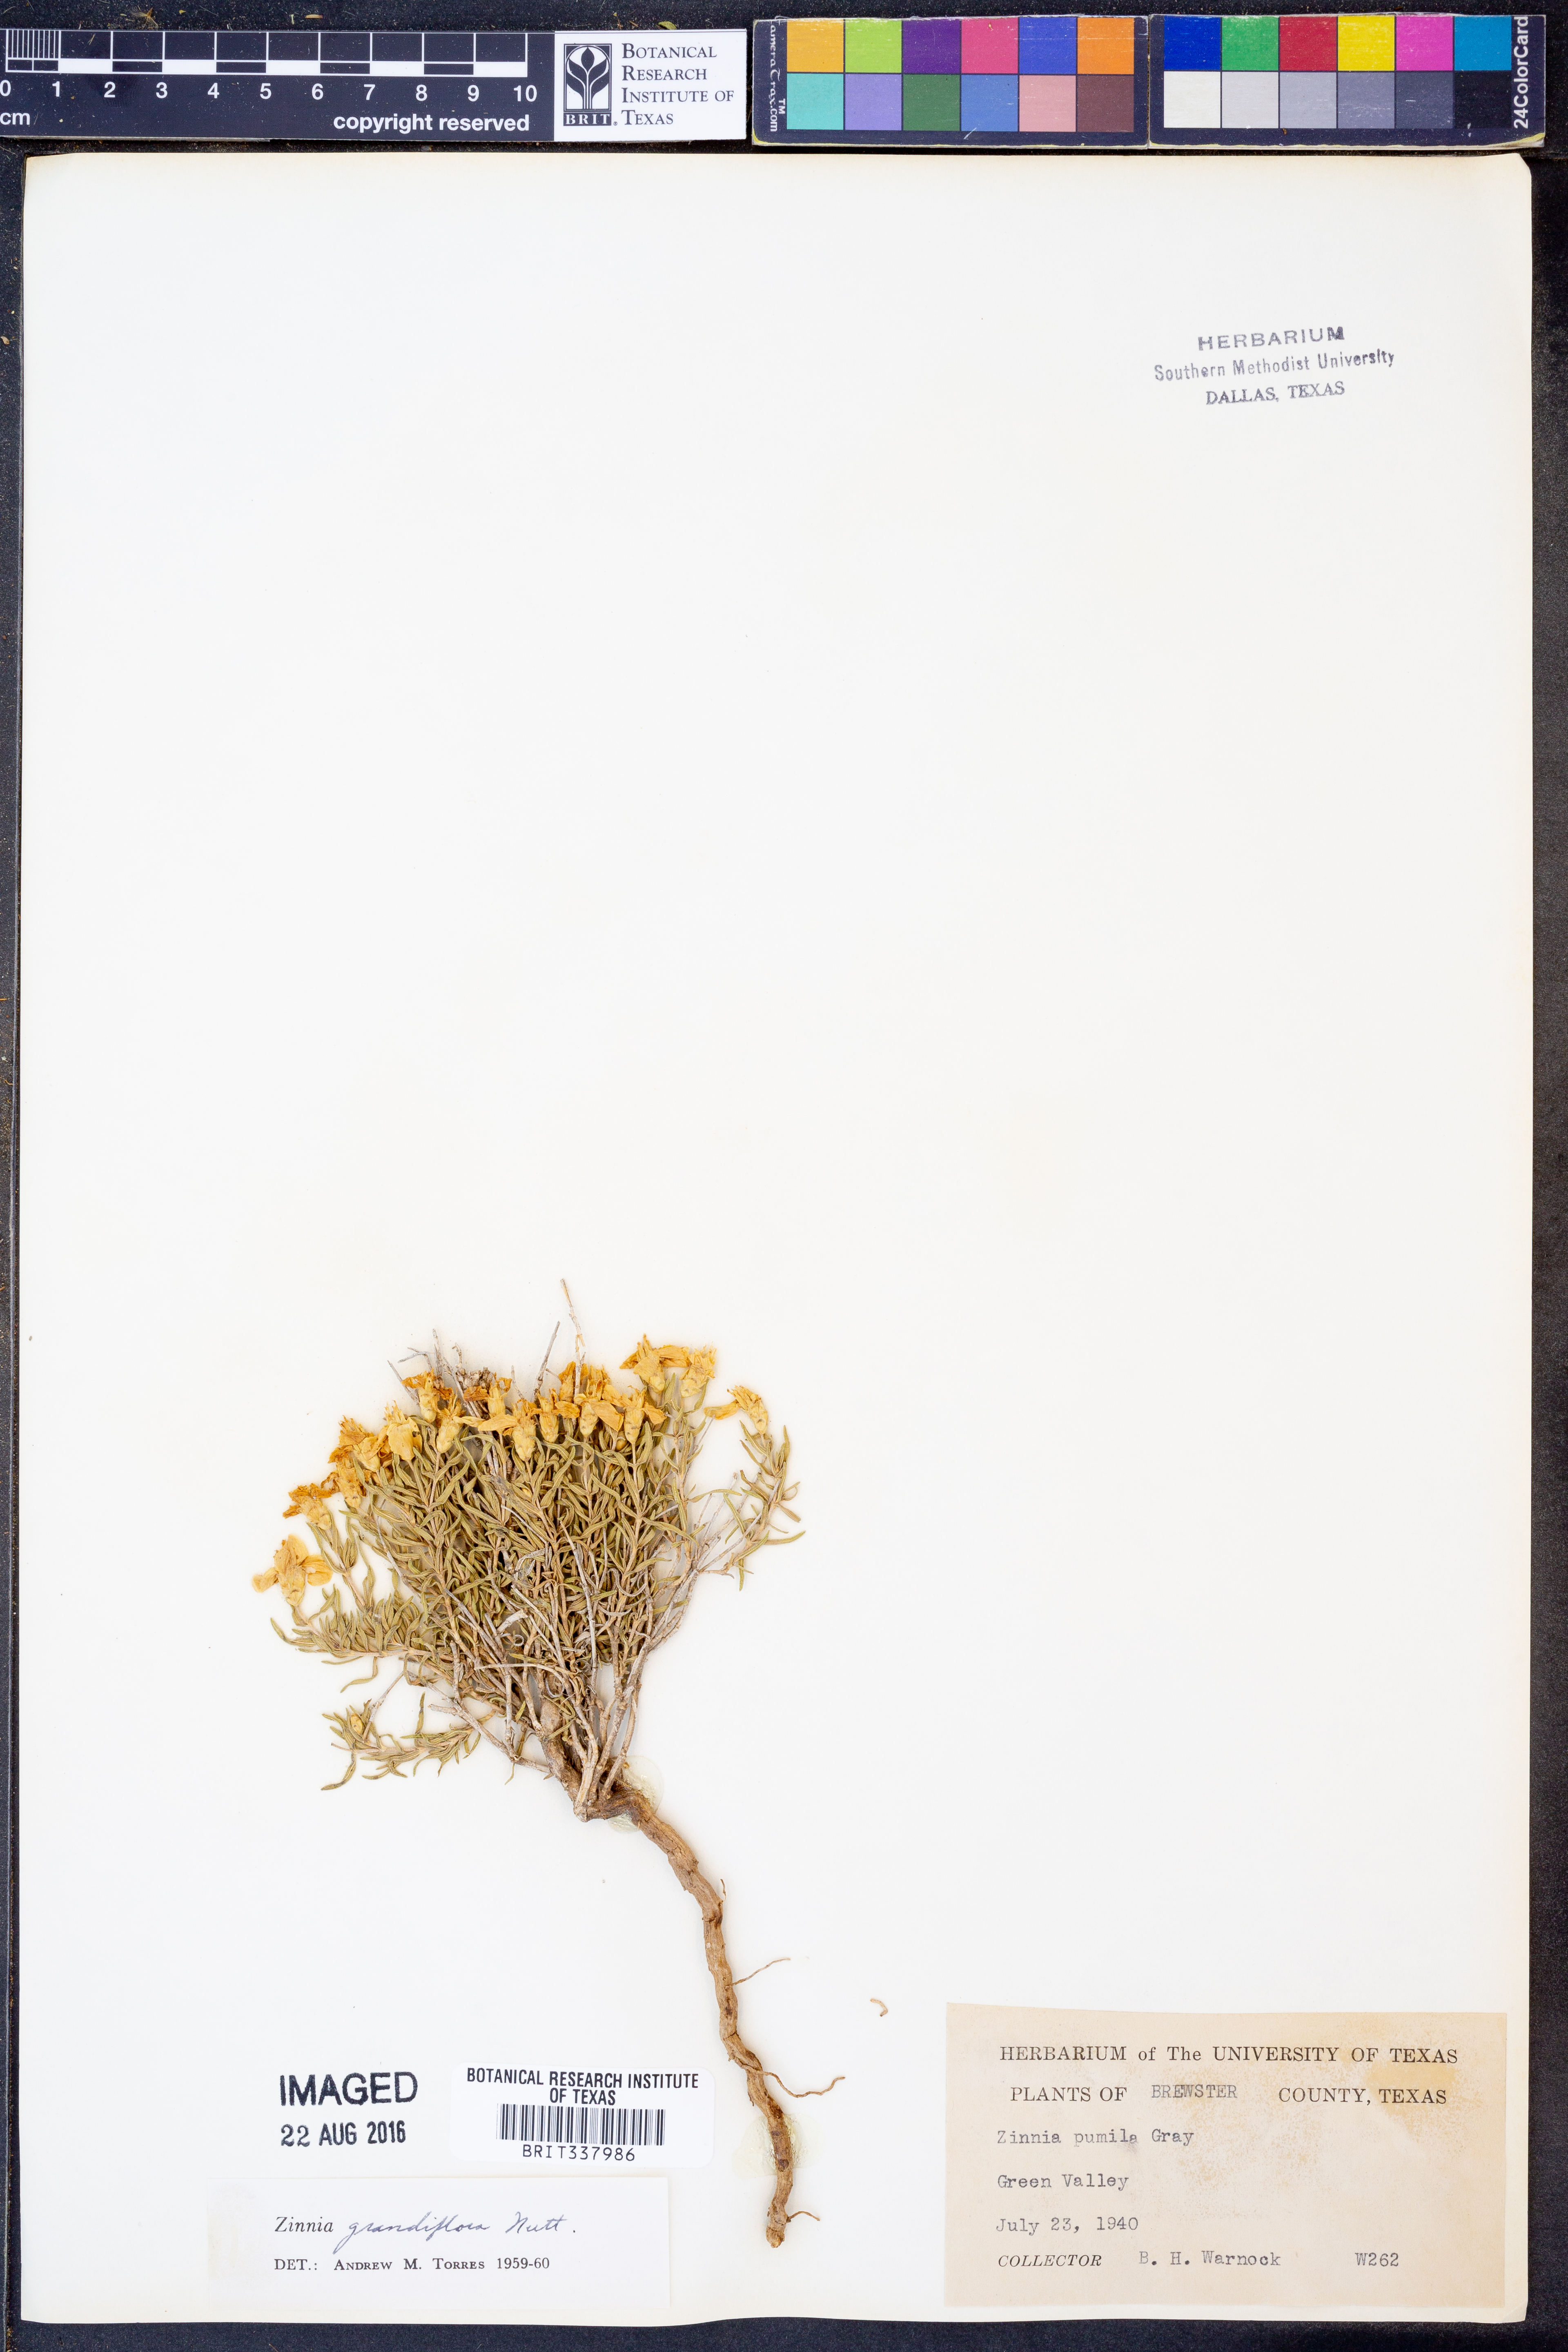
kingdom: Plantae
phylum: Tracheophyta
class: Magnoliopsida
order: Asterales
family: Asteraceae
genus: Zinnia
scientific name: Zinnia grandiflora
